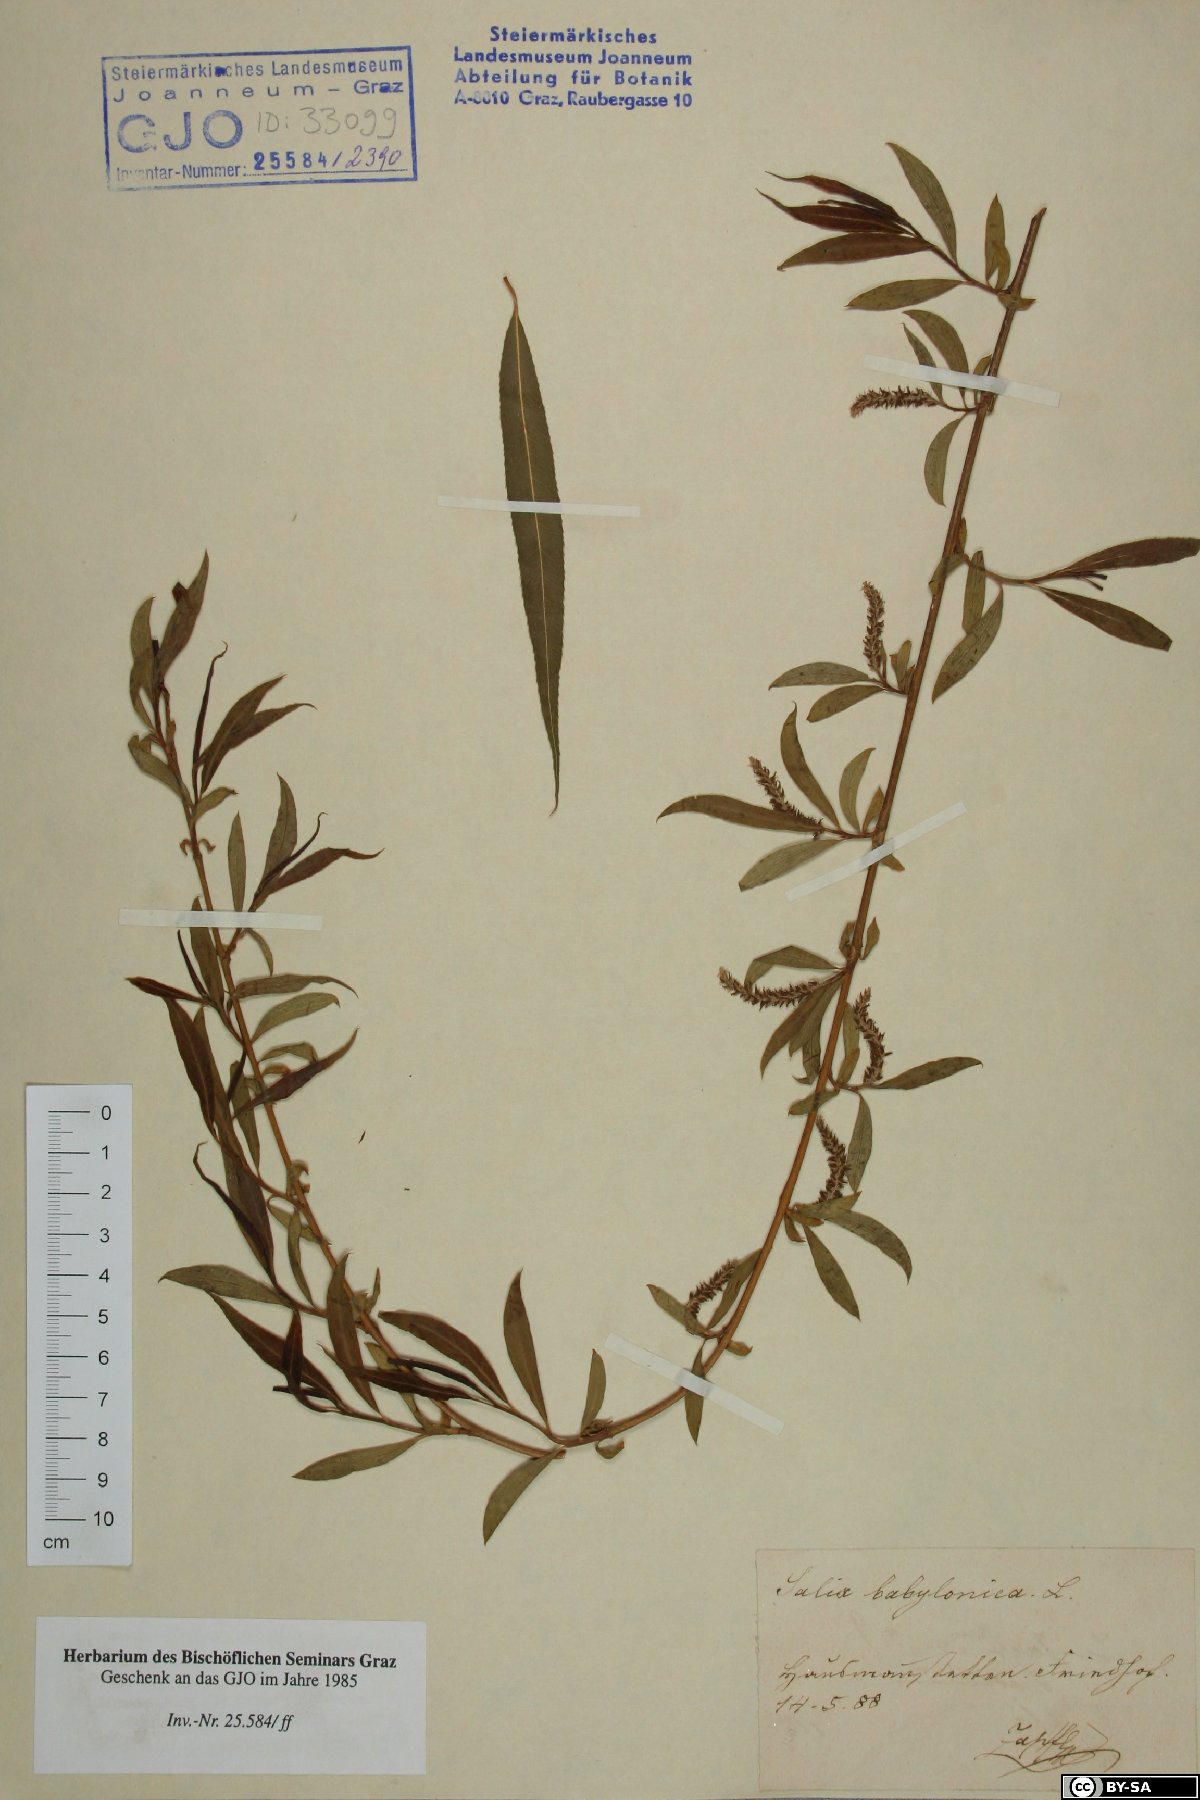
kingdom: Plantae
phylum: Tracheophyta
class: Magnoliopsida
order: Malpighiales
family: Salicaceae
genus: Salix
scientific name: Salix babylonica
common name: Weeping willow
